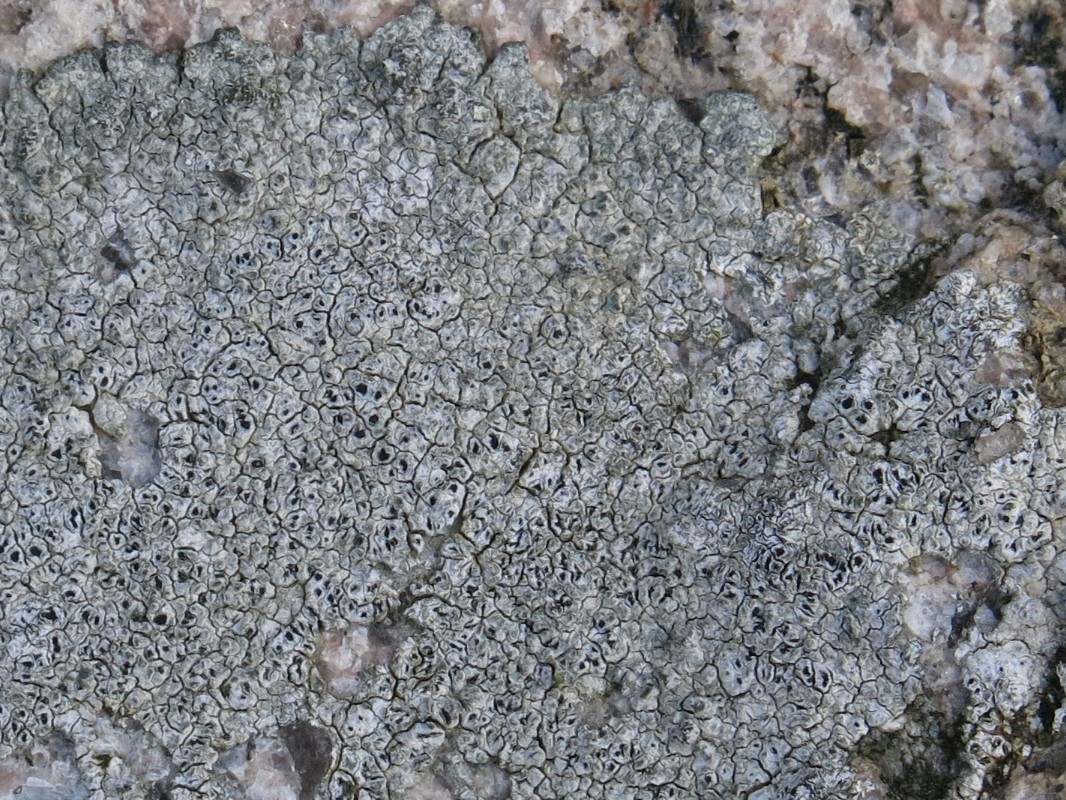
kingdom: Fungi
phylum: Ascomycota
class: Lecanoromycetes
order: Pertusariales
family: Megasporaceae
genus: Aspicilia
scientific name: Aspicilia
